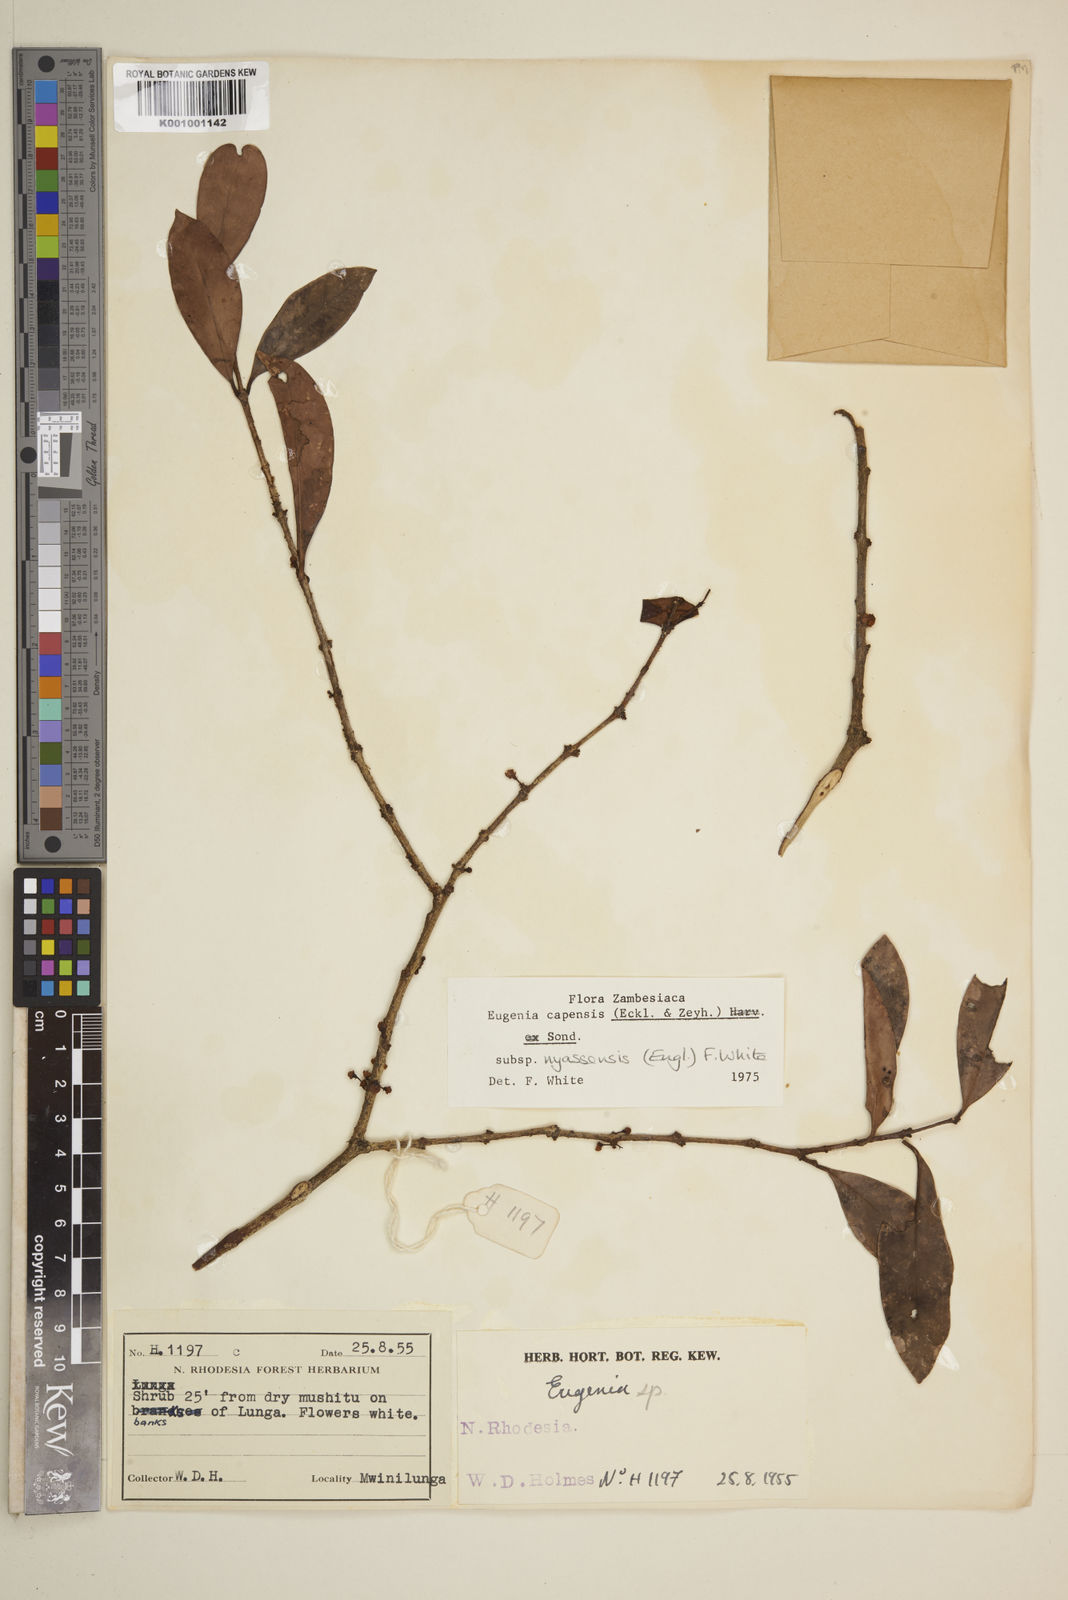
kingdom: Plantae
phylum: Tracheophyta
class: Magnoliopsida
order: Myrtales
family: Myrtaceae
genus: Eugenia
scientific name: Eugenia capensis
